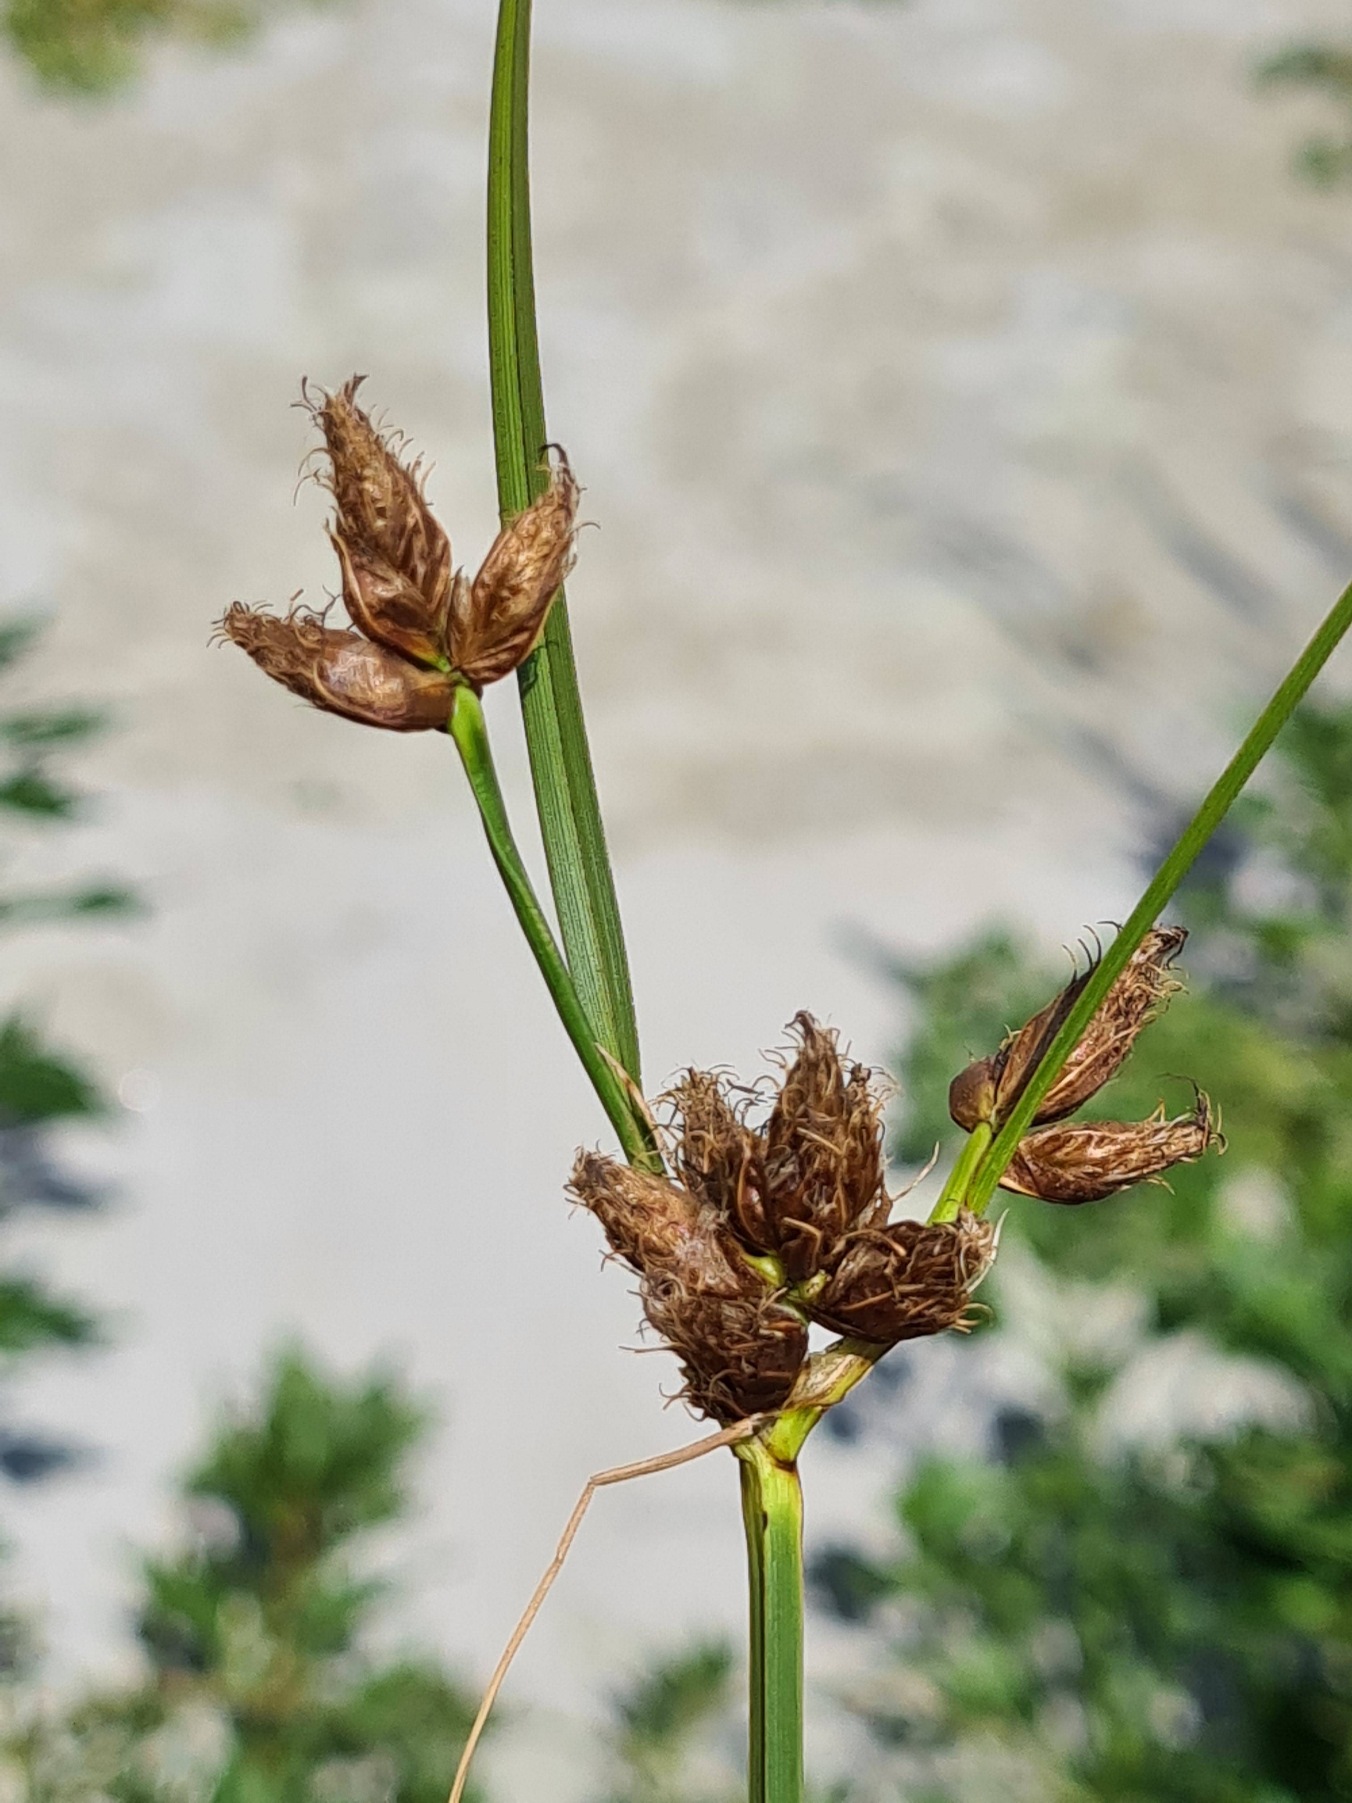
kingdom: Plantae
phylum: Tracheophyta
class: Liliopsida
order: Poales
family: Cyperaceae
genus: Bolboschoenus
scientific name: Bolboschoenus maritimus
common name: Strand-kogleaks
